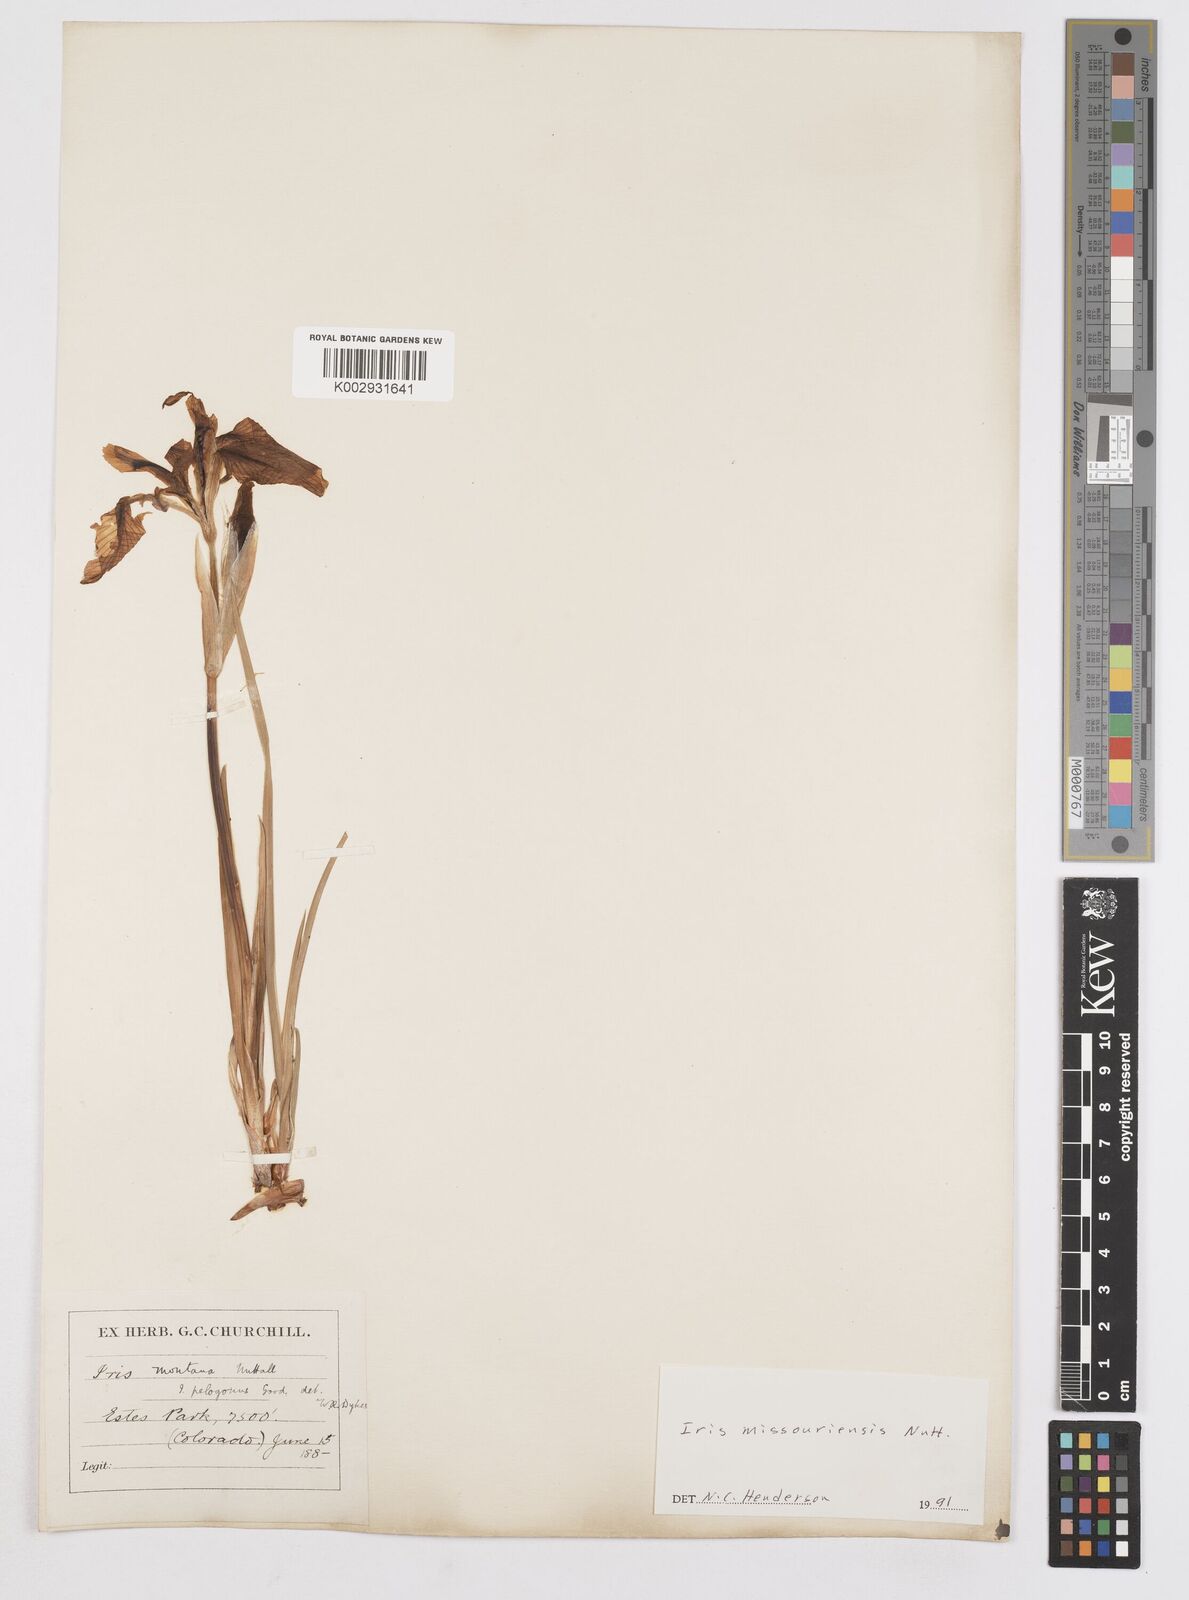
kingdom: Plantae
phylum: Tracheophyta
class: Liliopsida
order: Asparagales
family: Iridaceae
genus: Iris
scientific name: Iris missouriensis
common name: Rocky mountain iris
